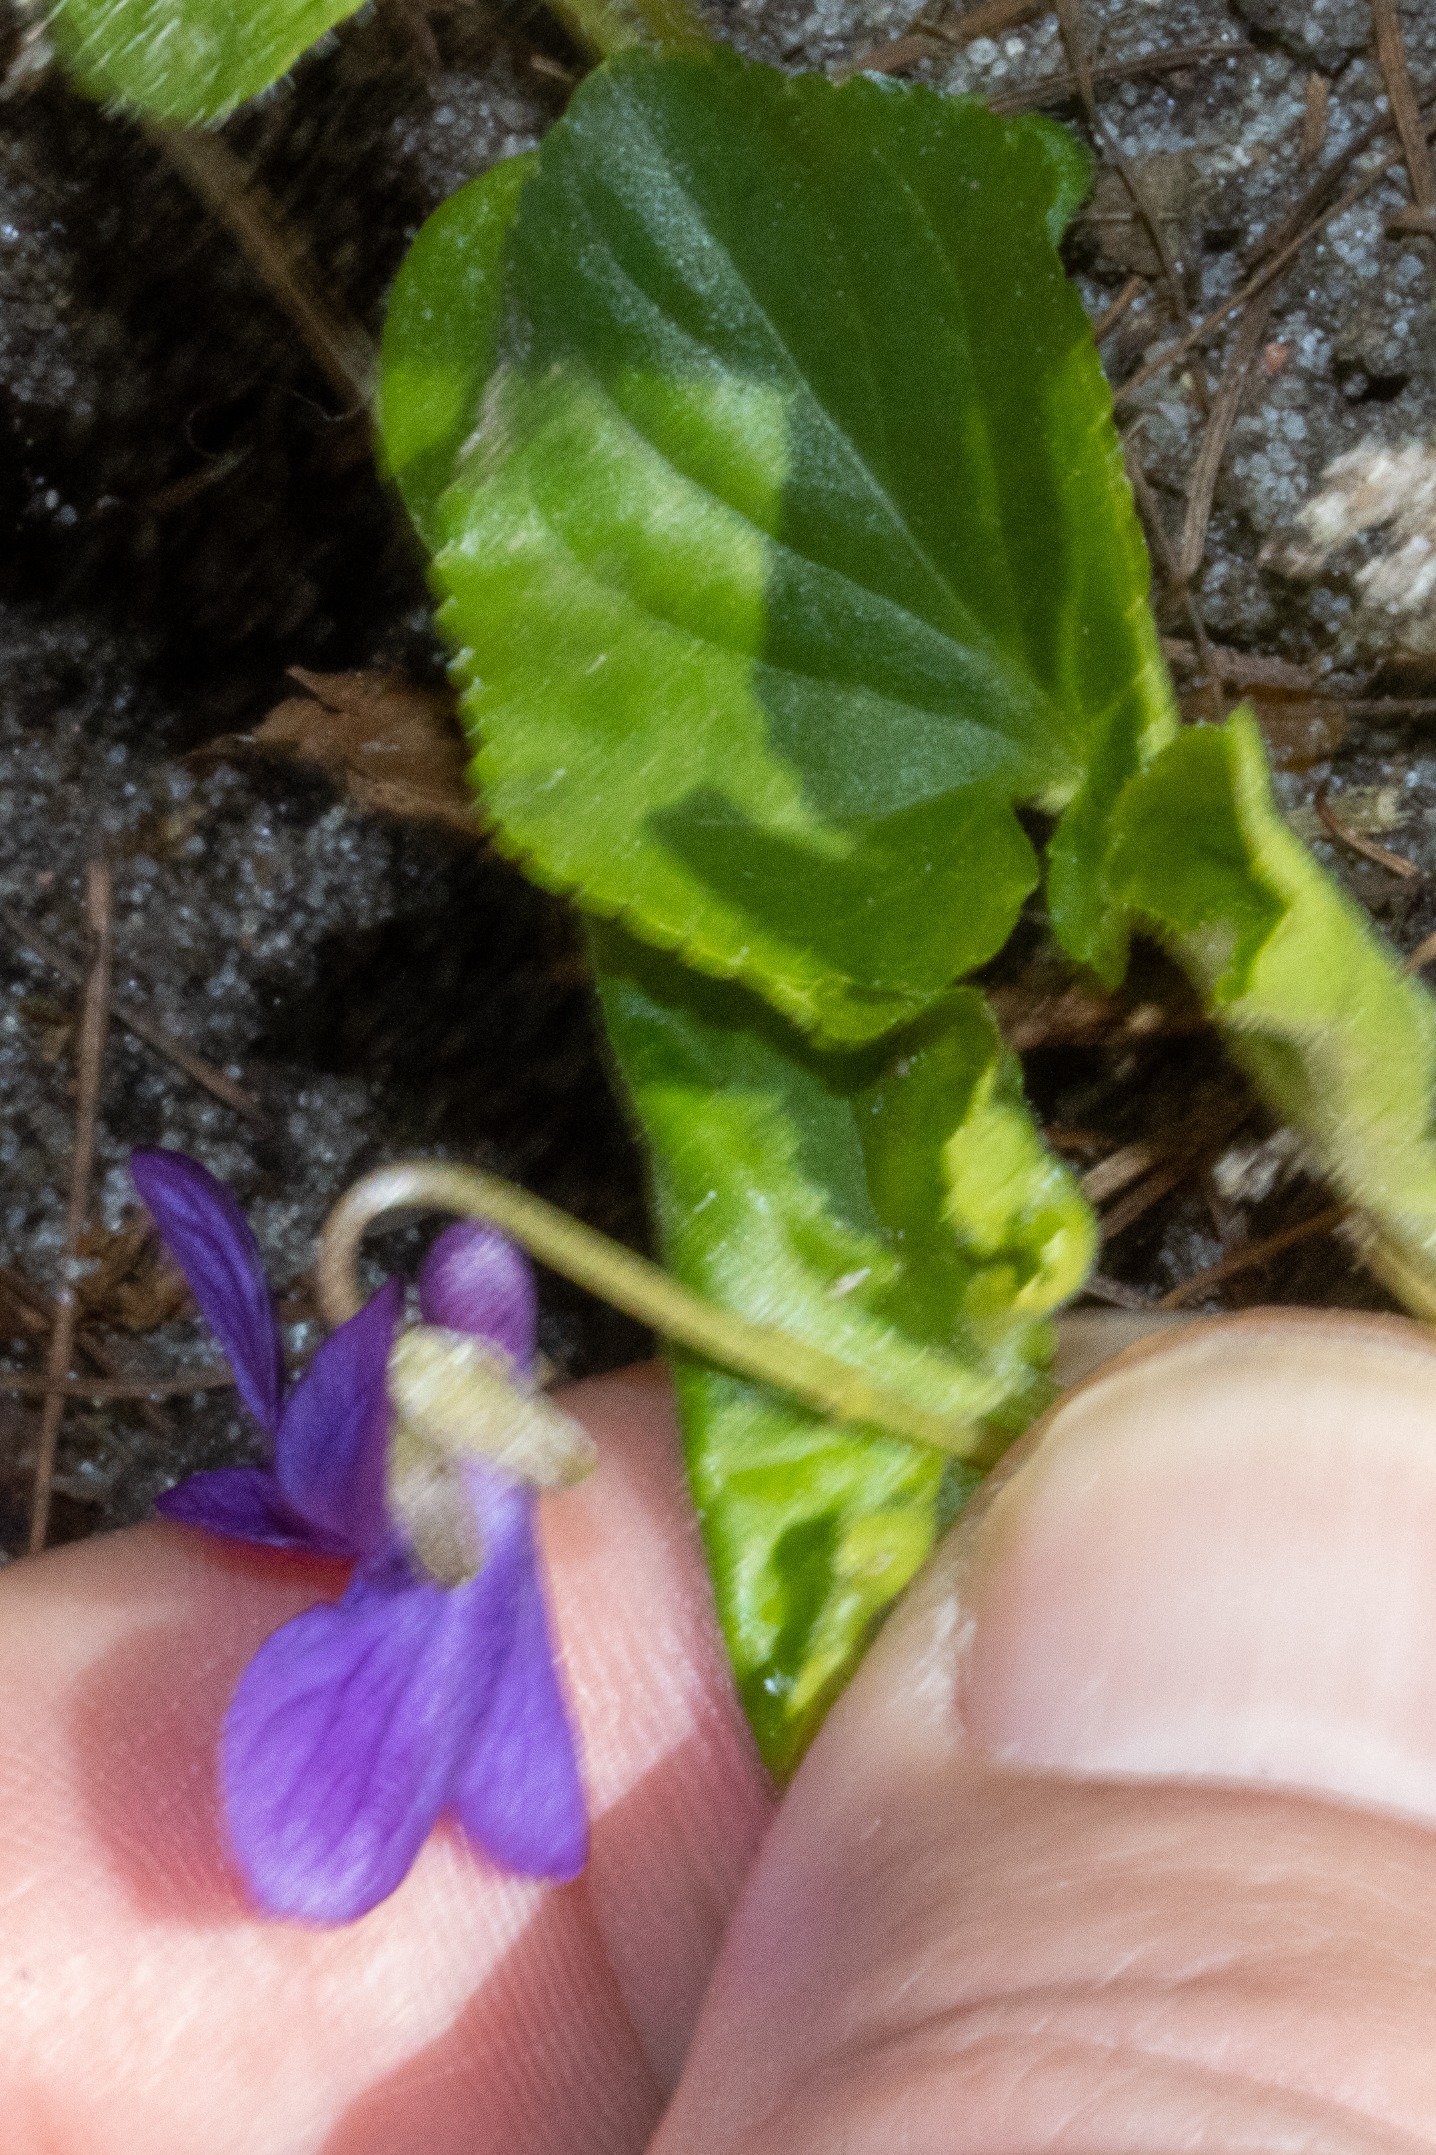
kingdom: Plantae
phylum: Tracheophyta
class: Magnoliopsida
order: Malpighiales
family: Violaceae
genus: Viola
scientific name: Viola odorata
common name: Marts-viol
